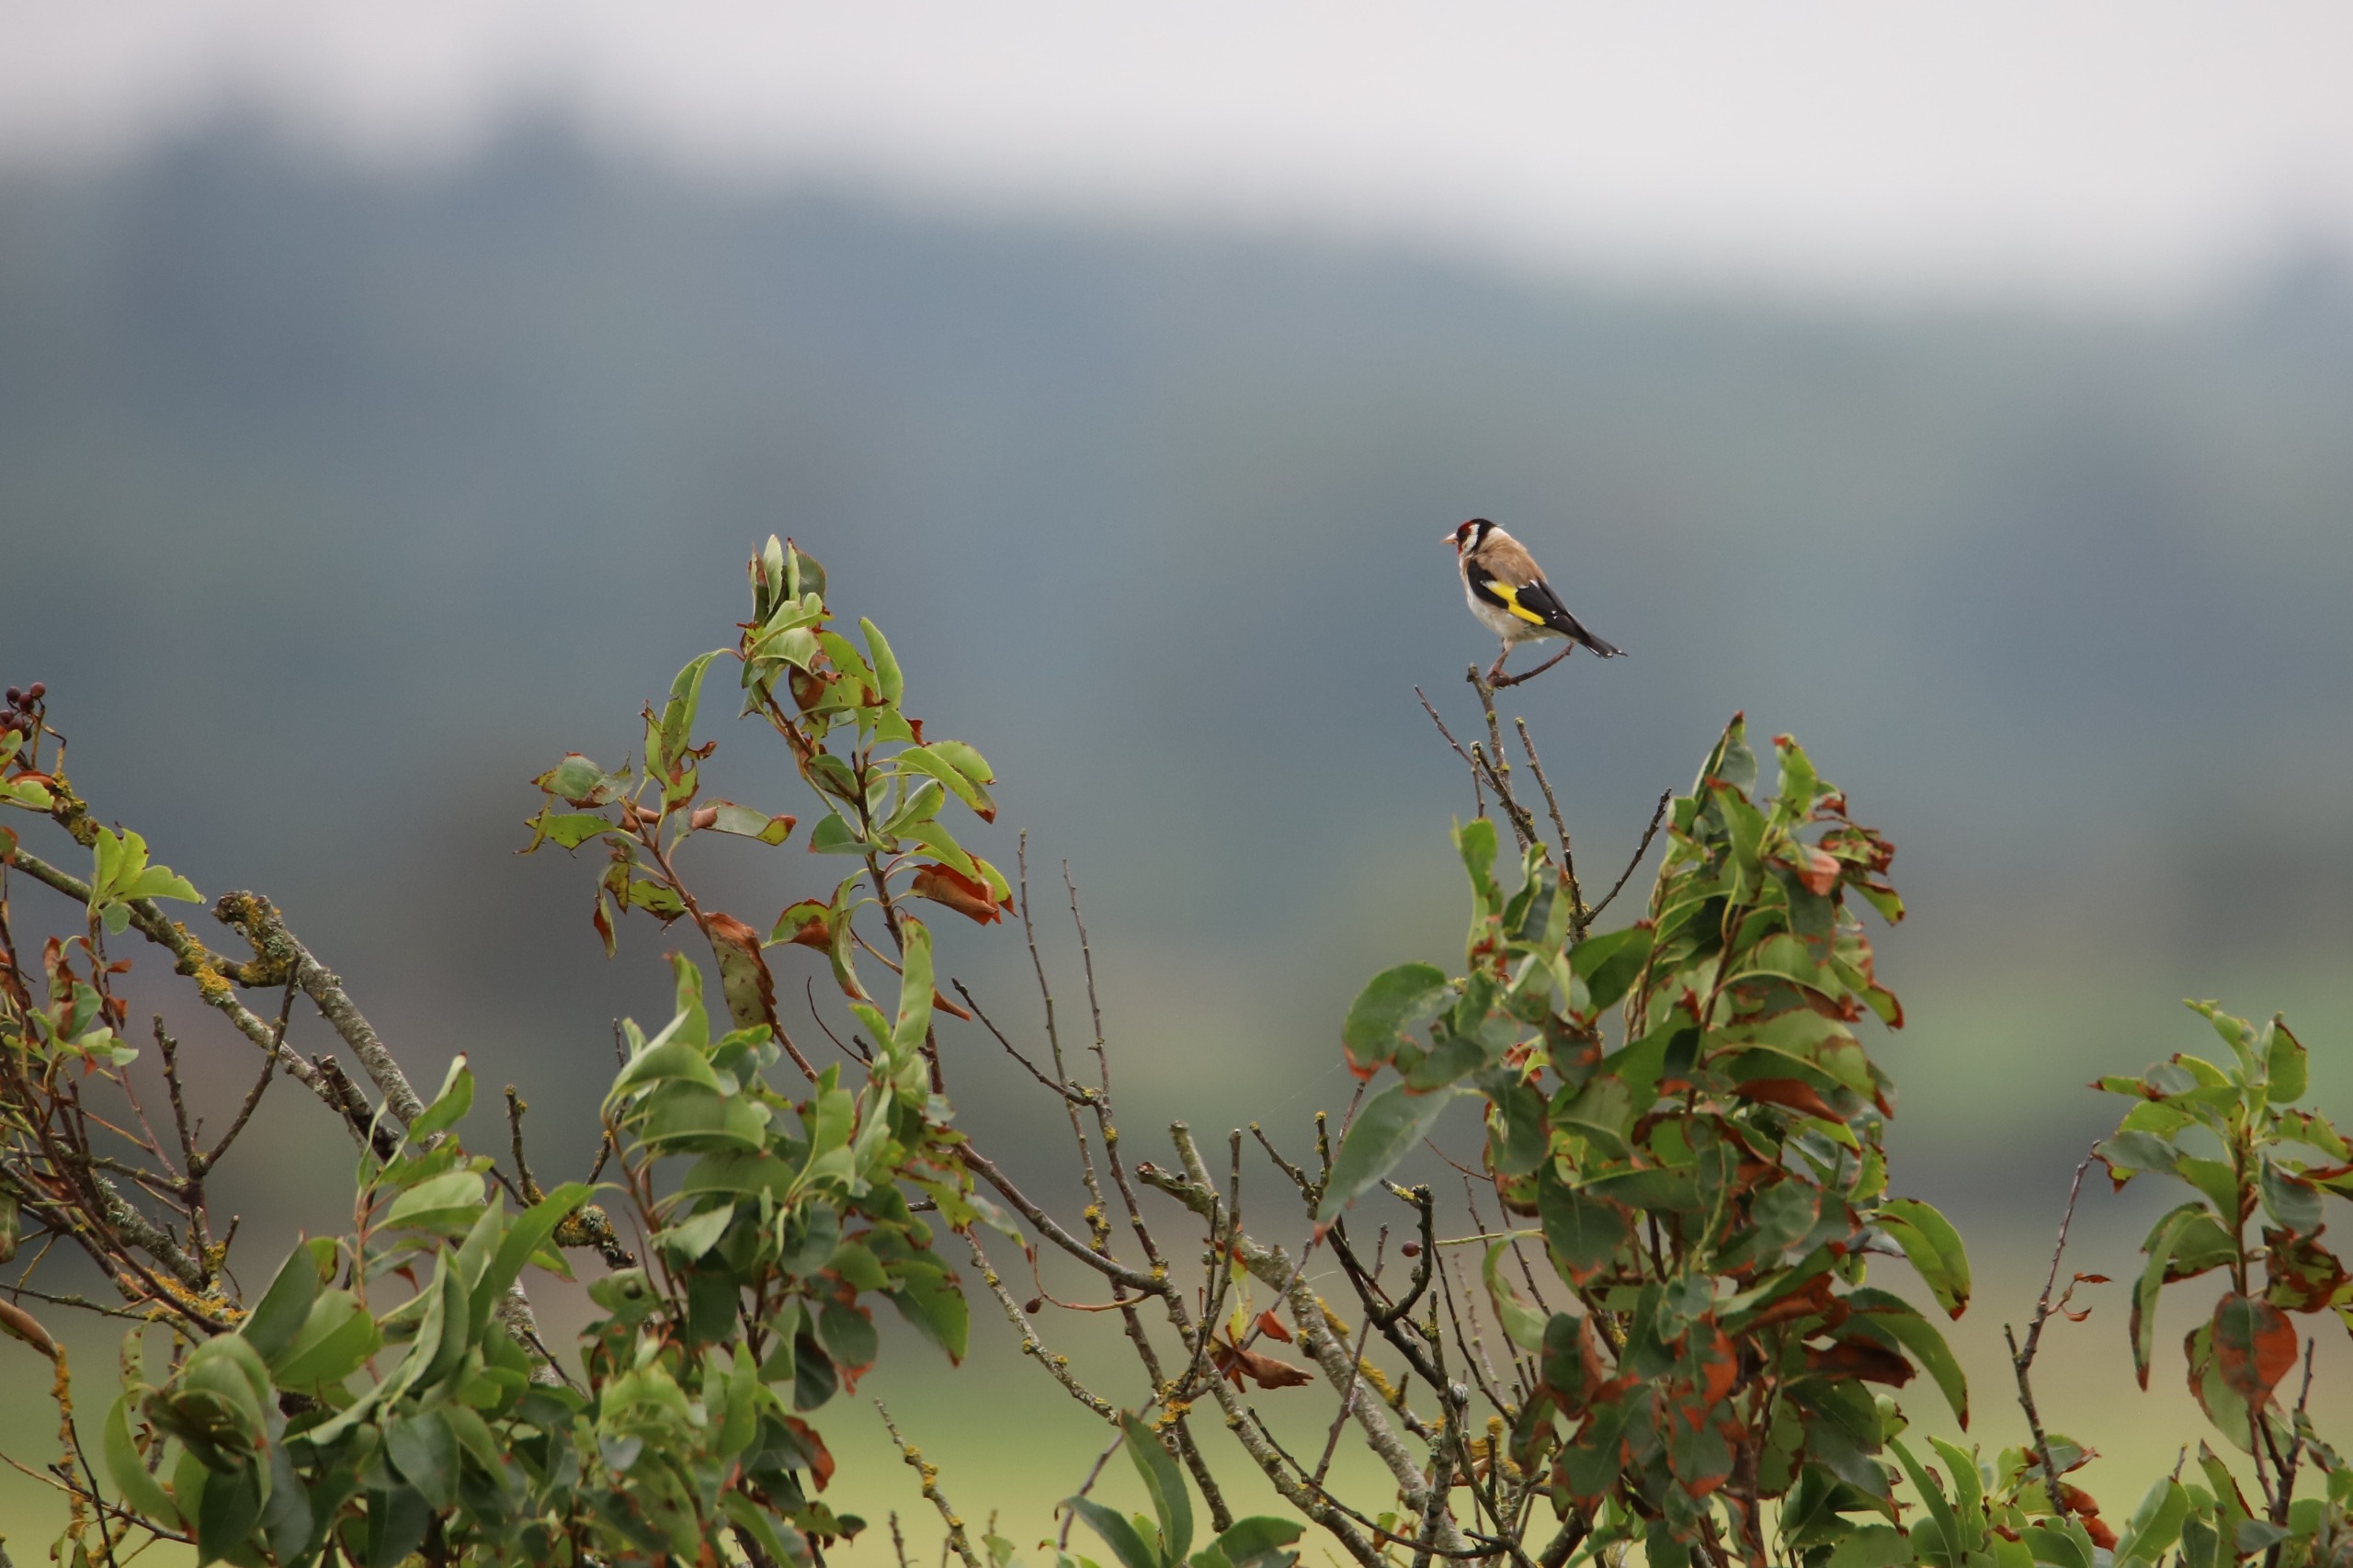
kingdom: Animalia
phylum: Chordata
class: Aves
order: Passeriformes
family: Fringillidae
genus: Carduelis
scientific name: Carduelis carduelis
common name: Stillits
